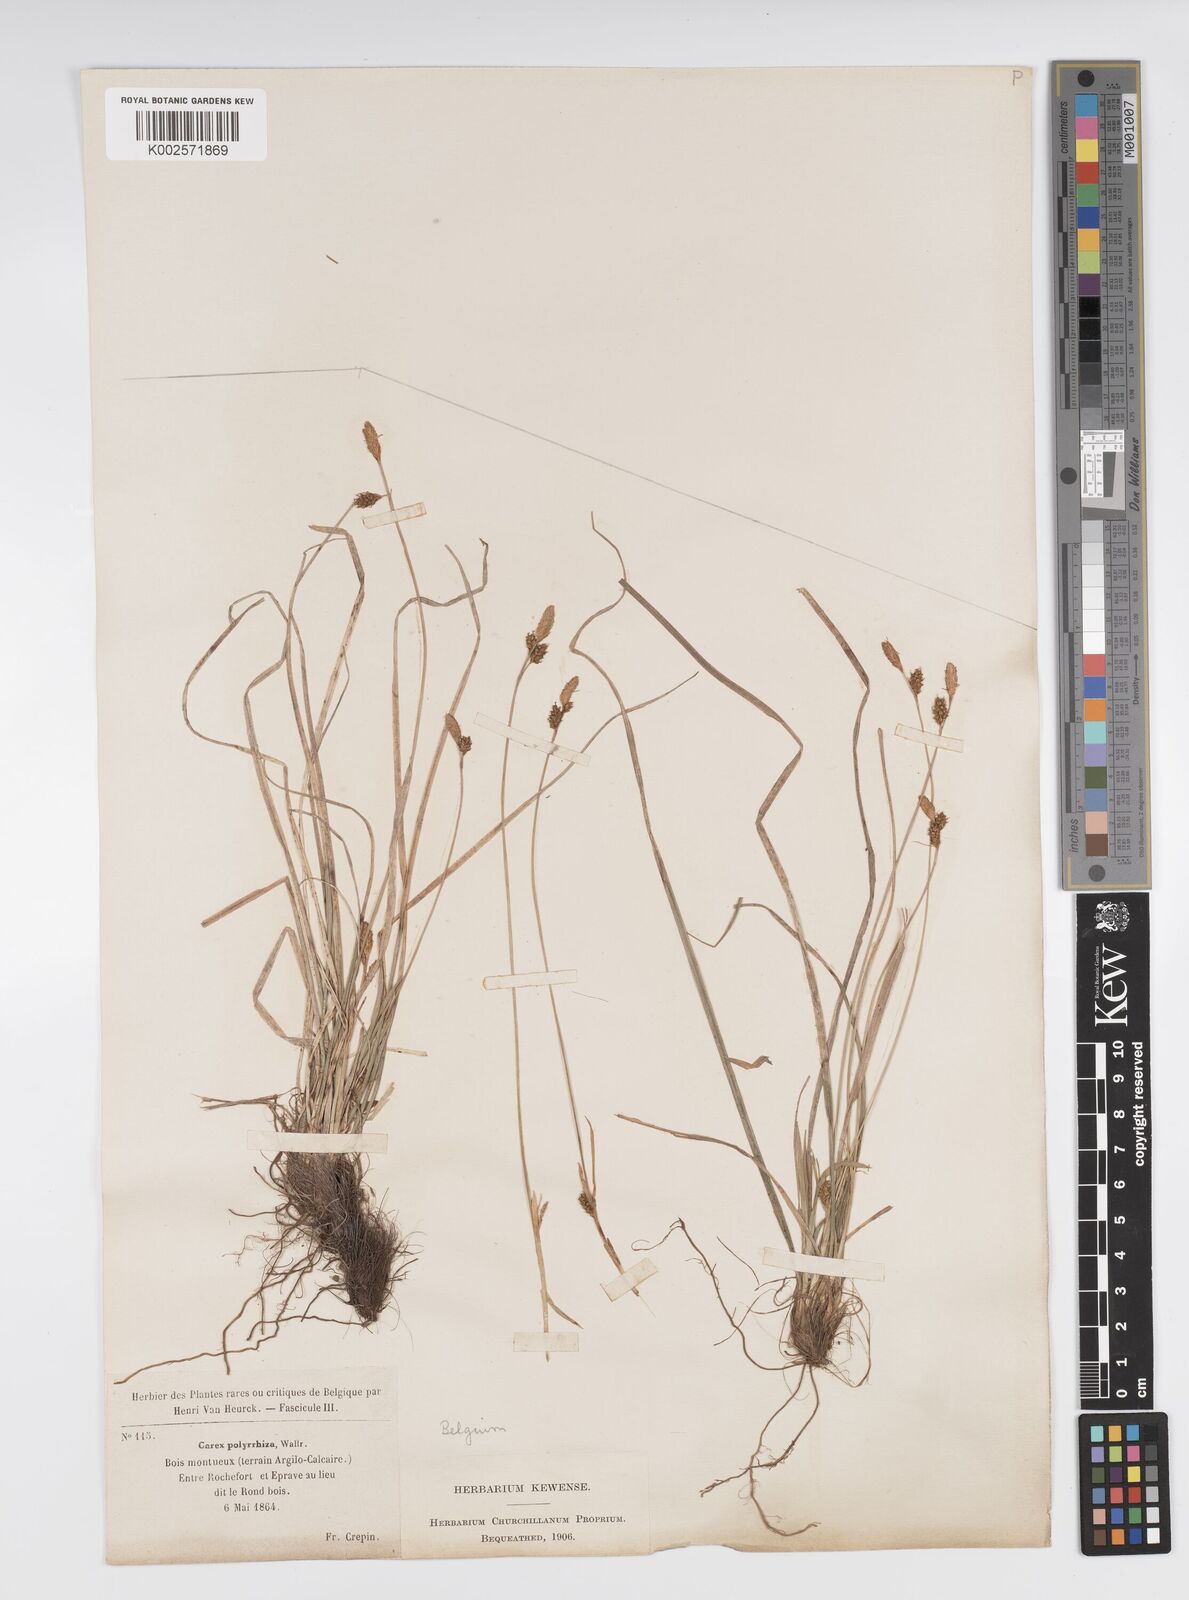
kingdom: Plantae
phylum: Tracheophyta
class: Liliopsida
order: Poales
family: Cyperaceae
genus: Carex
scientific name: Carex umbrosa
